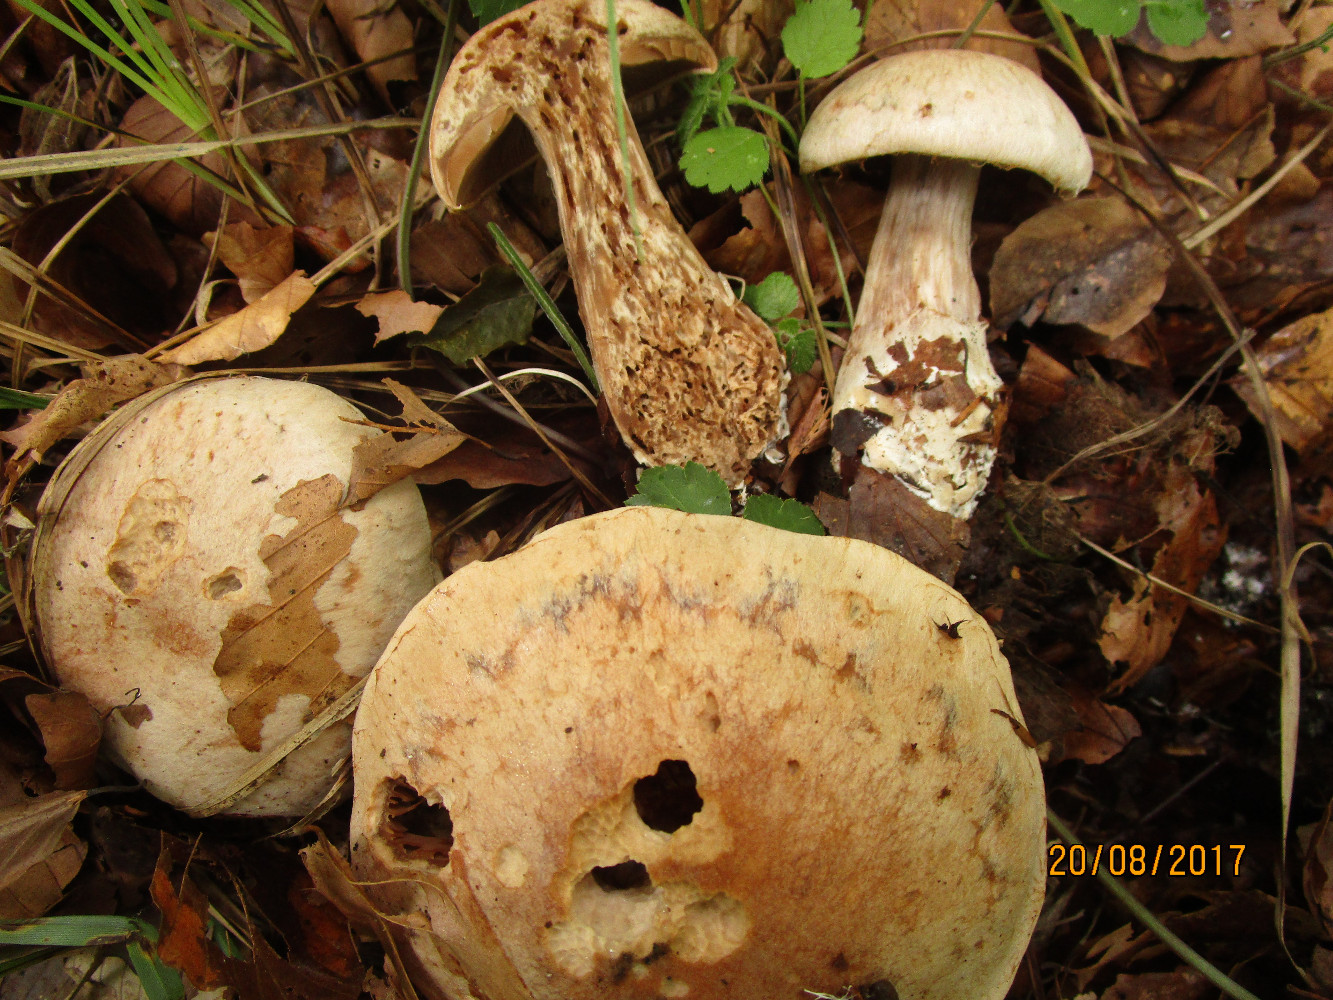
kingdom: Fungi
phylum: Basidiomycota
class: Agaricomycetes
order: Agaricales
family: Cortinariaceae
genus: Cortinarius
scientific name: Cortinarius
